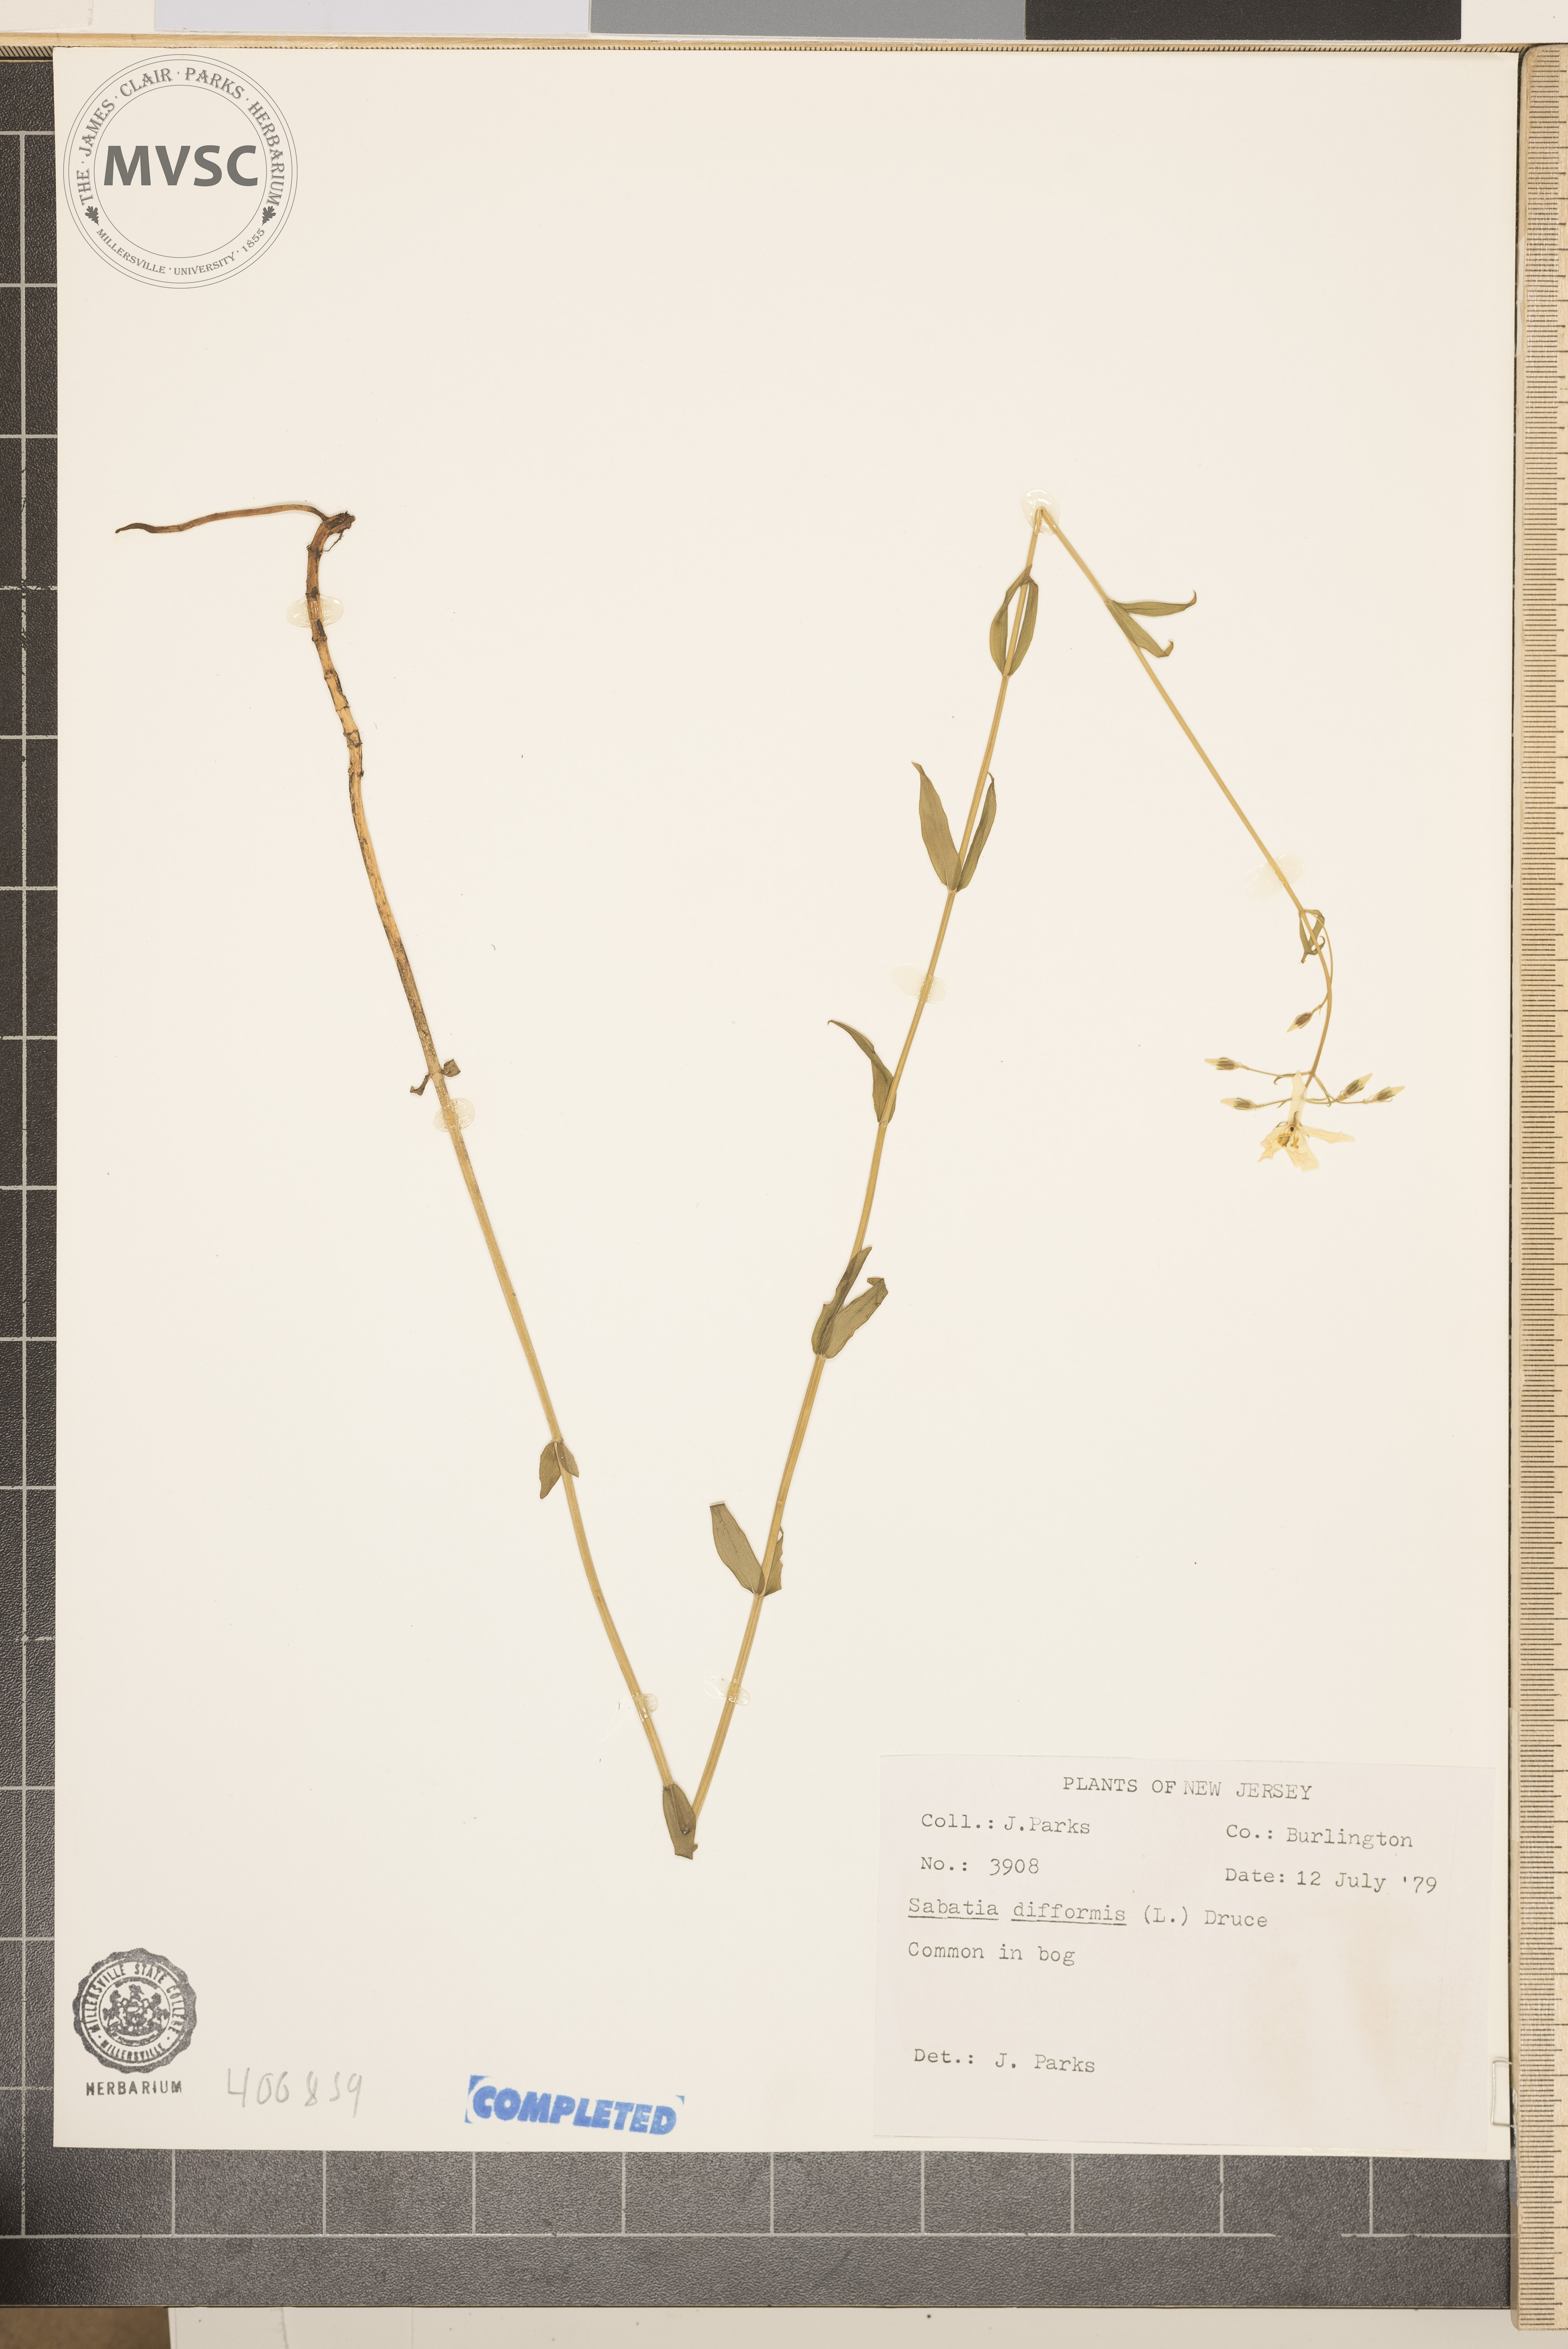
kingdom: Plantae
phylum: Tracheophyta
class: Magnoliopsida
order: Gentianales
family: Gentianaceae
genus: Sabatia
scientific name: Sabatia difformis
